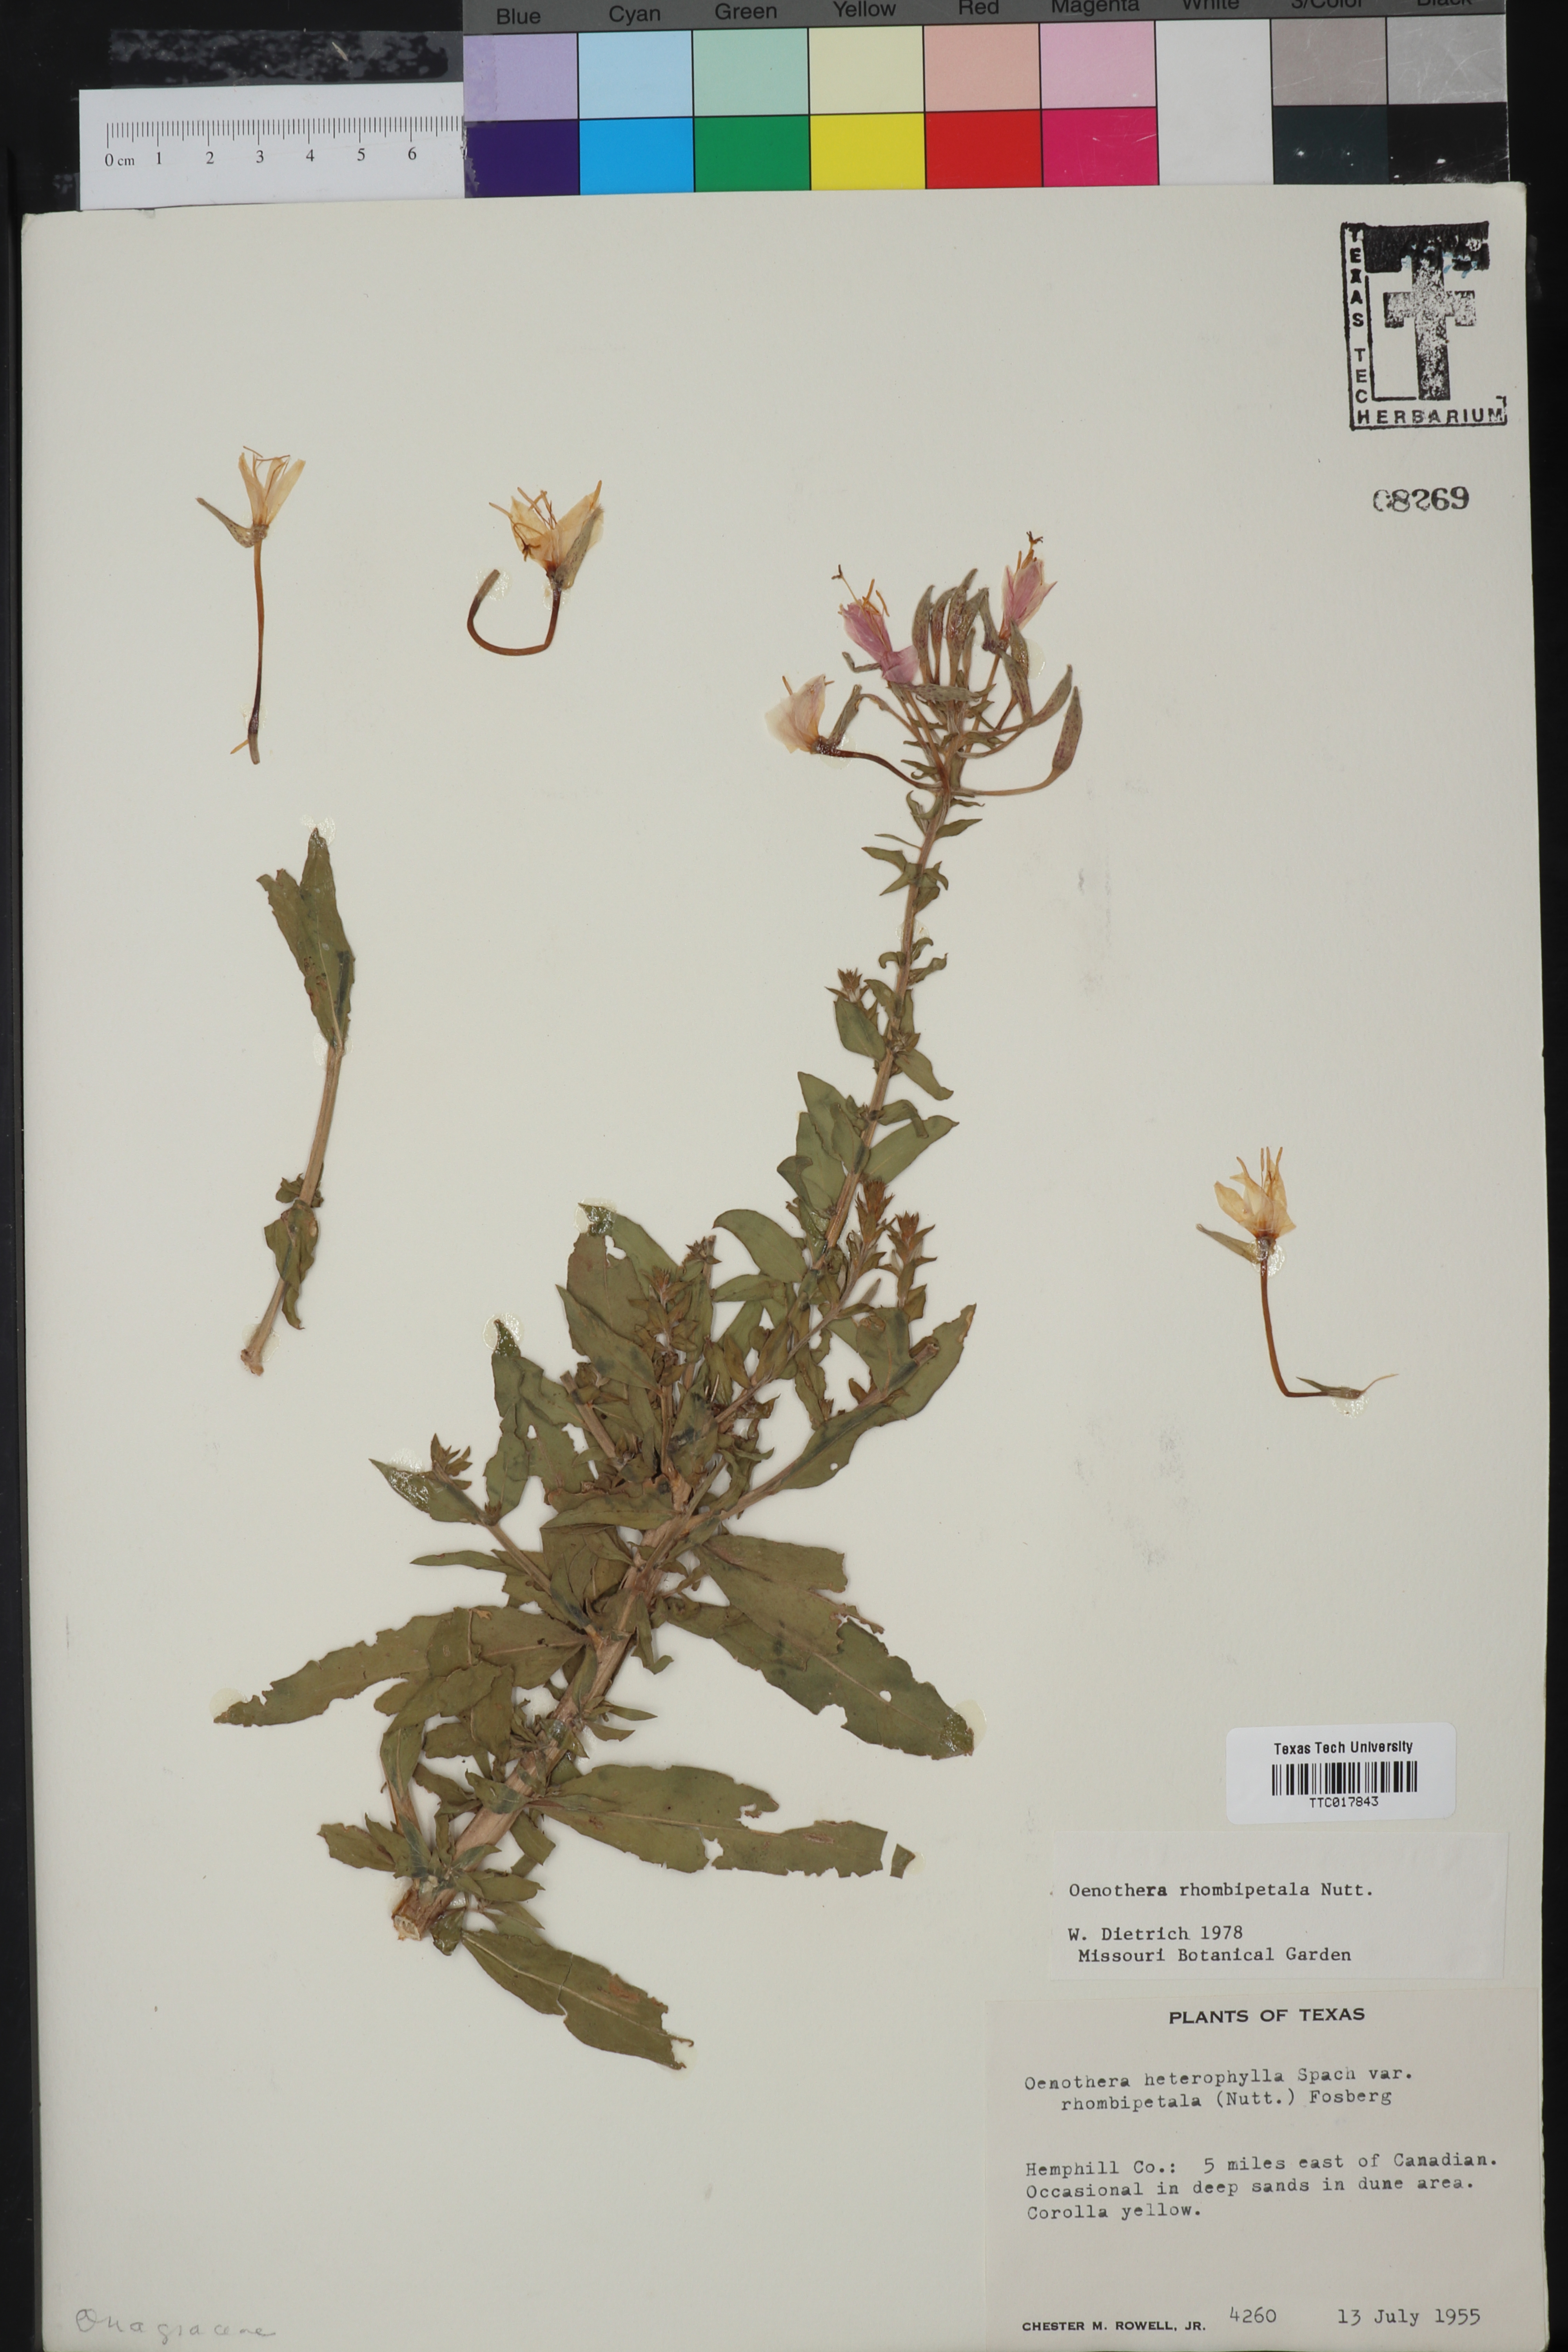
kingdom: Plantae
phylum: Tracheophyta
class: Magnoliopsida
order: Myrtales
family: Onagraceae
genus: Oenothera
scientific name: Oenothera rhombipetala
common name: Four-points evening-primrose
